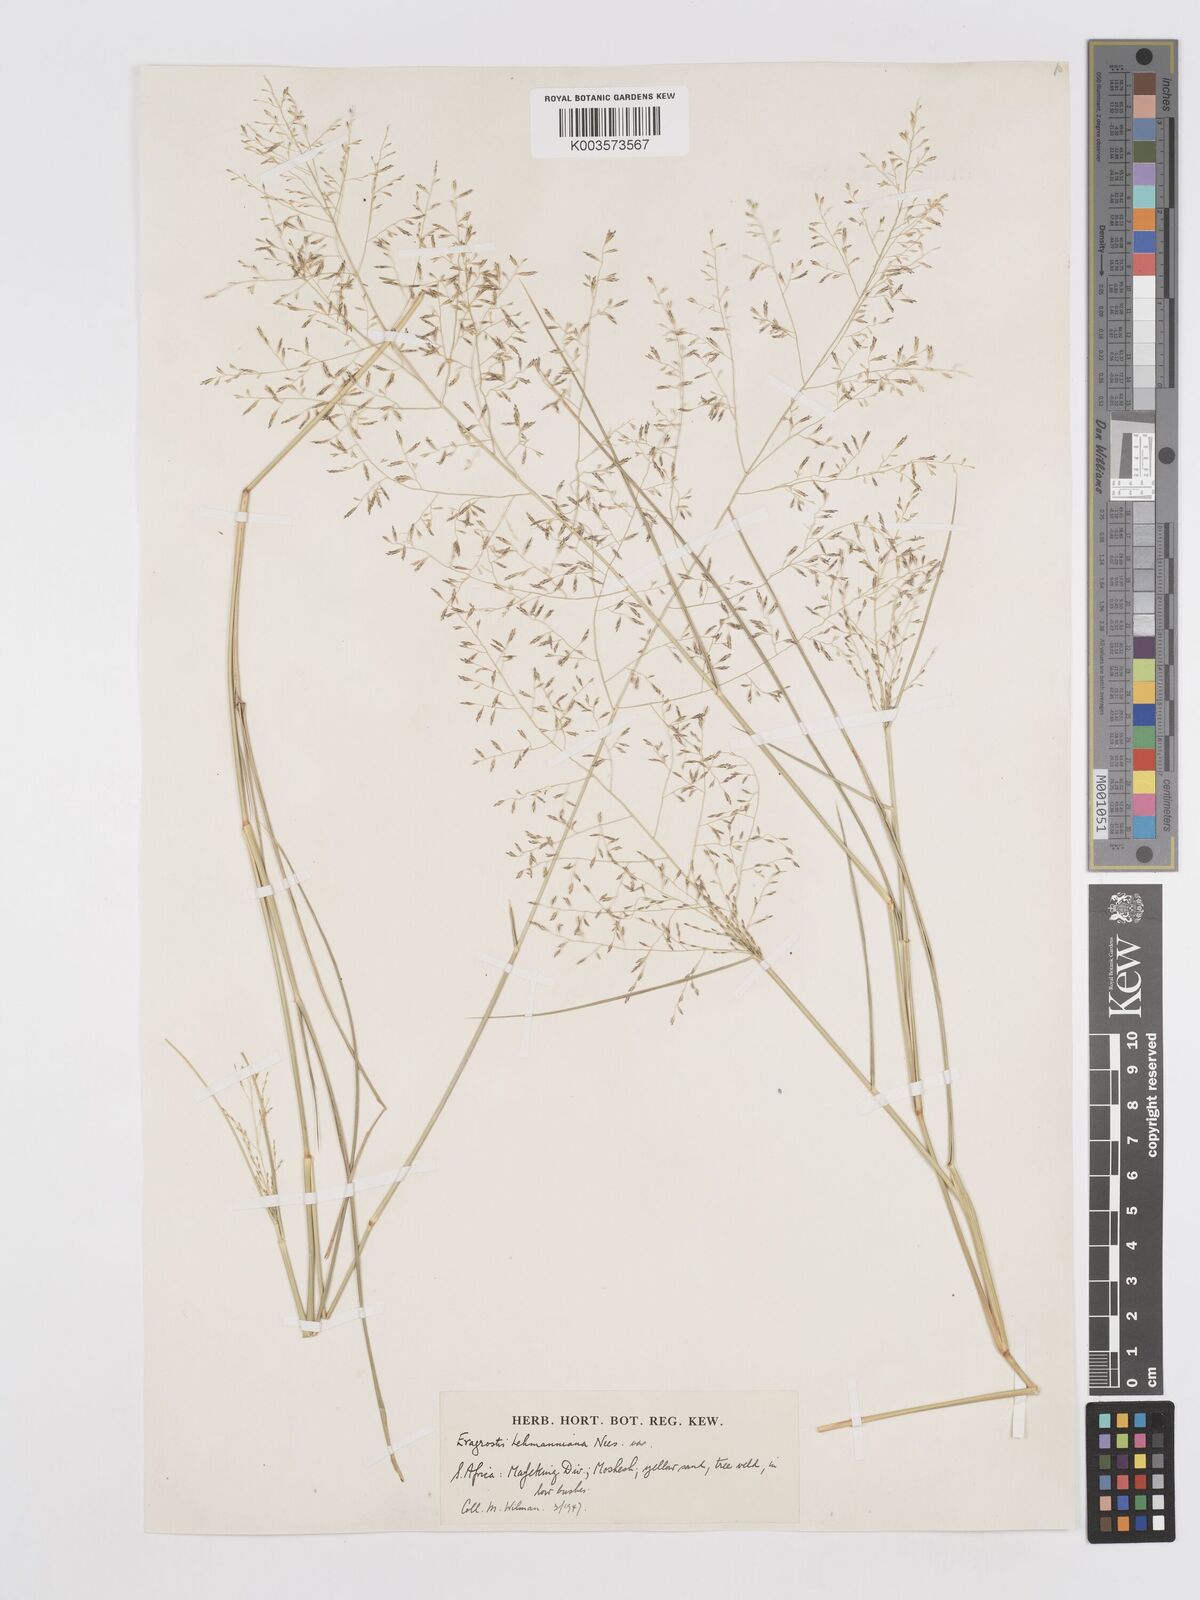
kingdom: Plantae
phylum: Tracheophyta
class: Liliopsida
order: Poales
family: Poaceae
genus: Eragrostis
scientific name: Eragrostis lehmanniana
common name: Lehmann lovegrass
